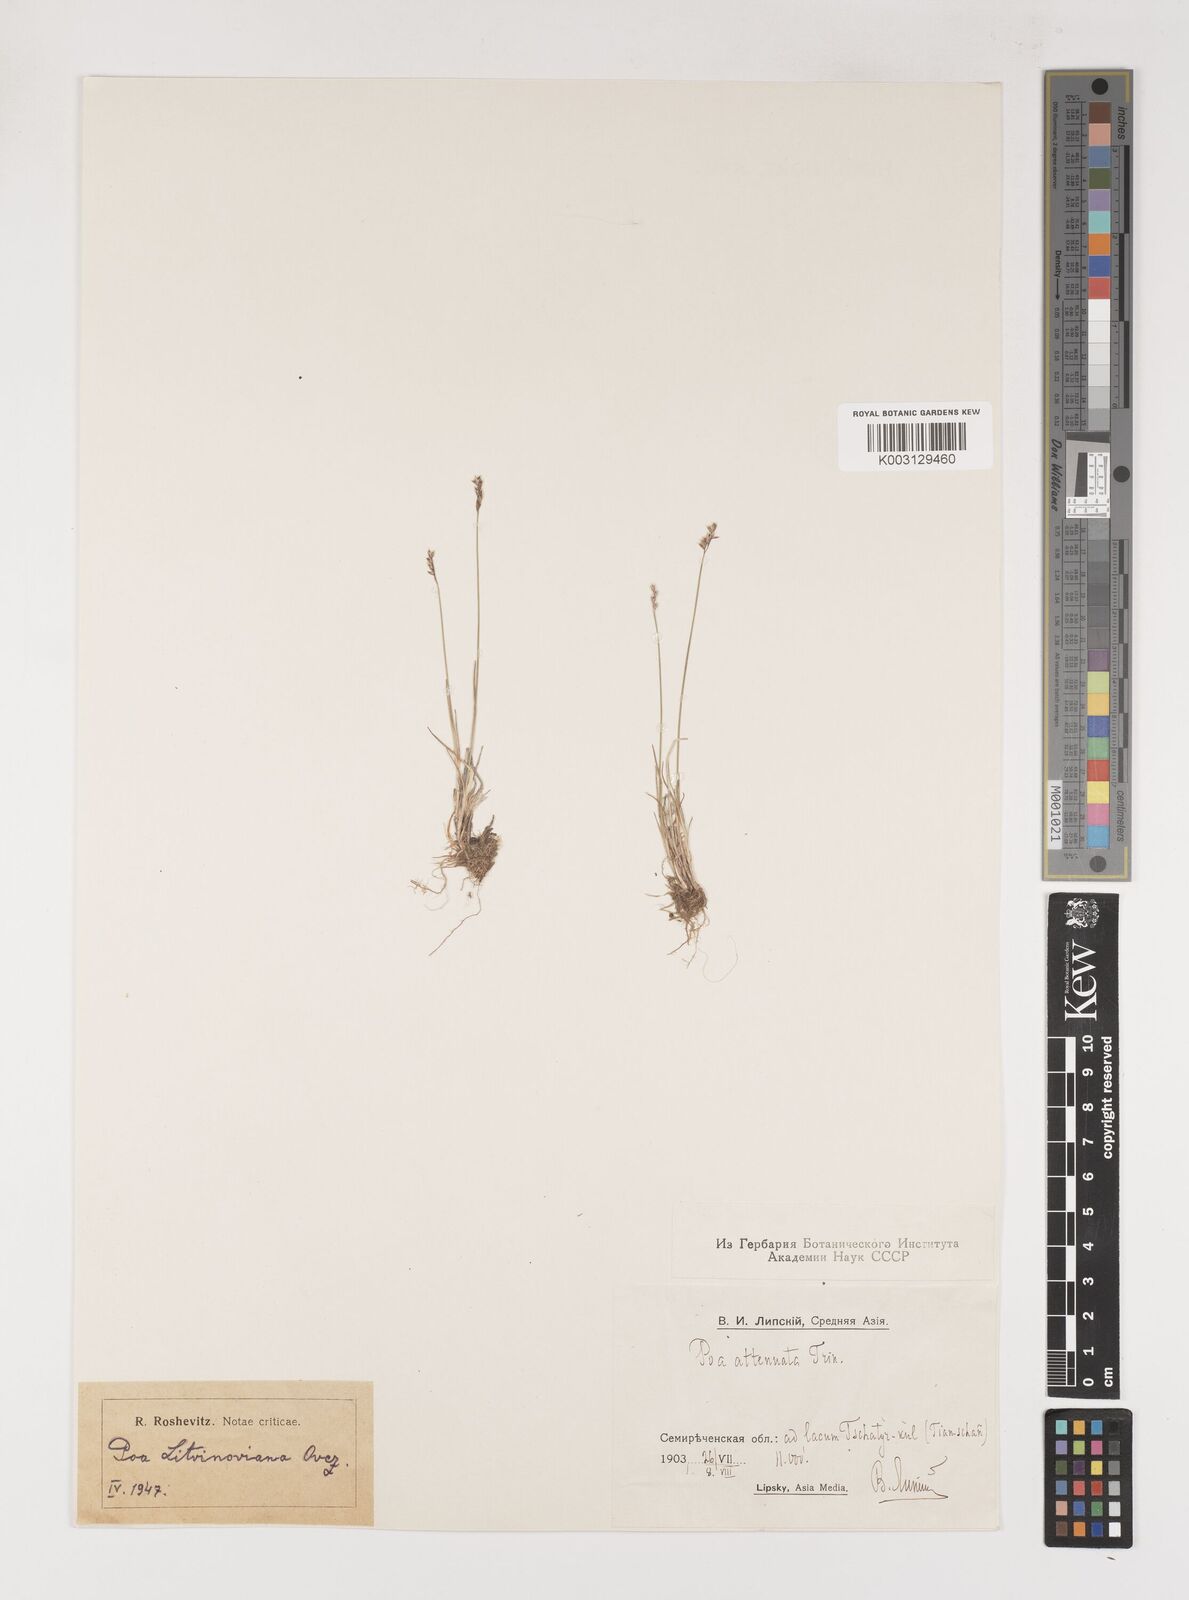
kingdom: Plantae
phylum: Tracheophyta
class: Liliopsida
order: Poales
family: Poaceae
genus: Poa
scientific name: Poa attenuata
